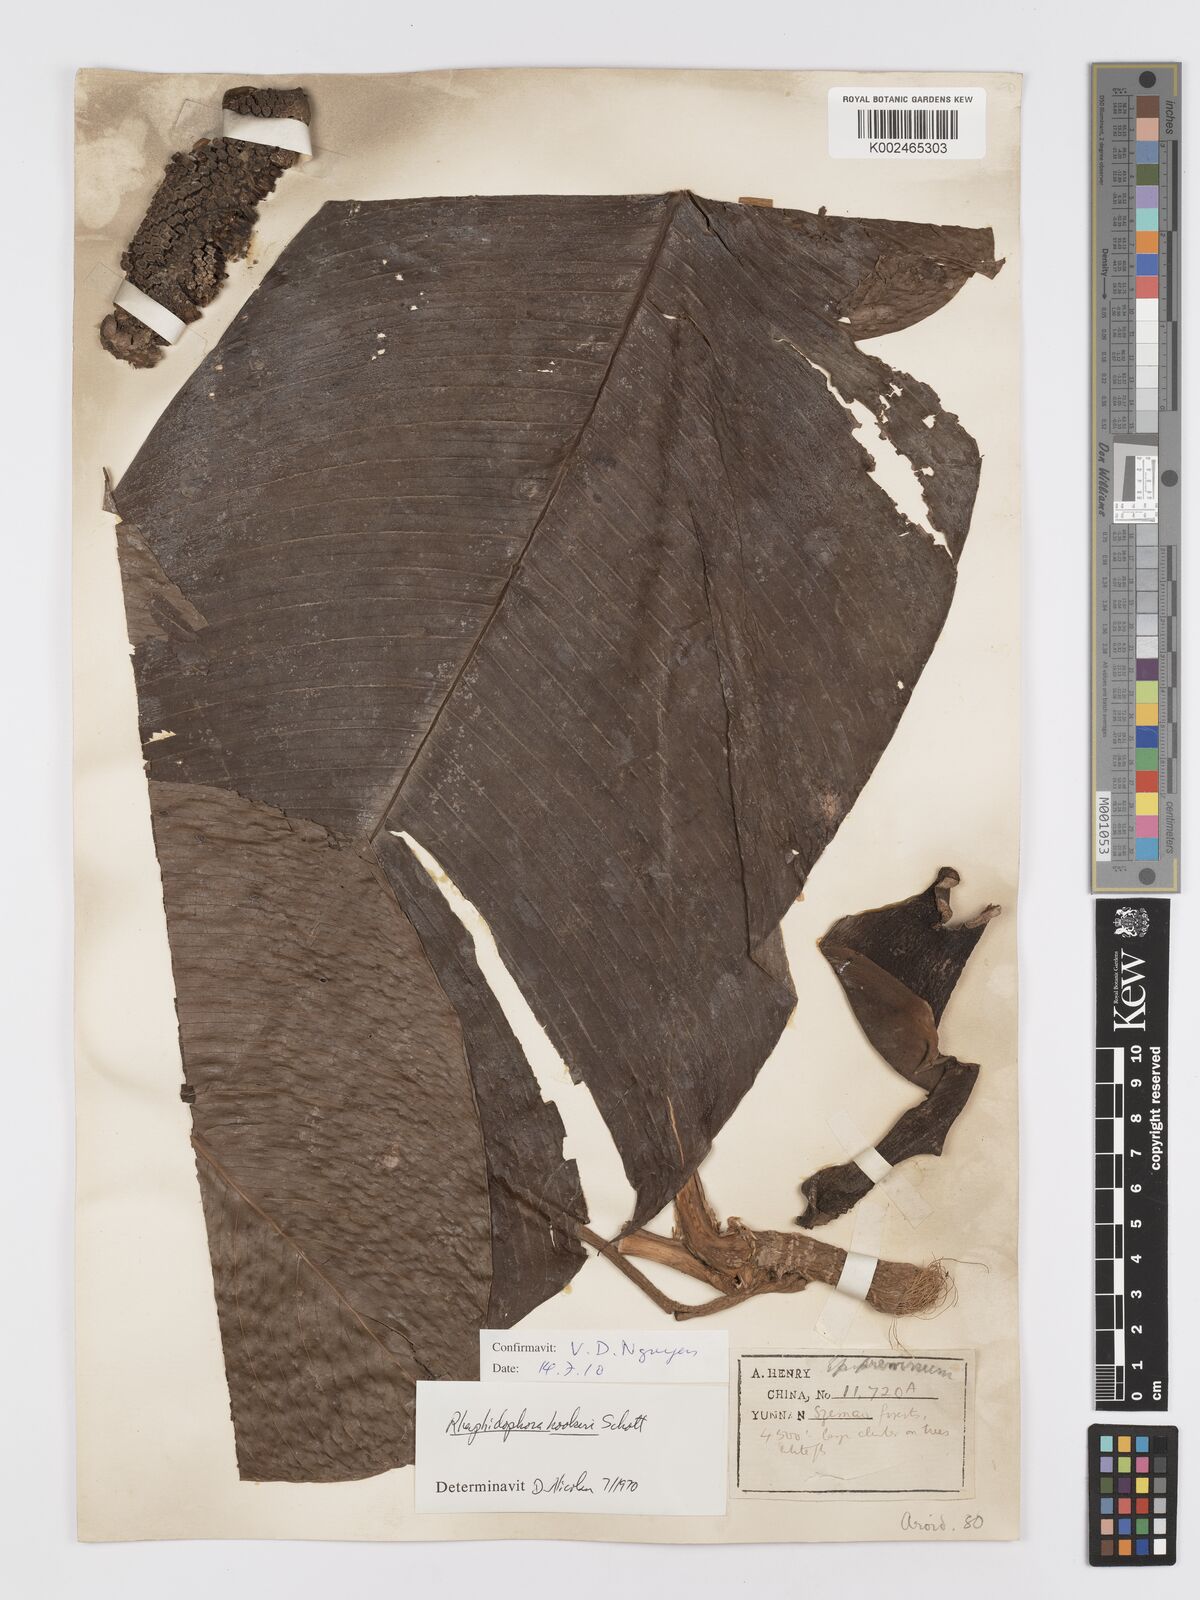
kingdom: Plantae
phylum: Tracheophyta
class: Liliopsida
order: Alismatales
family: Araceae
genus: Rhaphidophora
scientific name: Rhaphidophora hookeri
